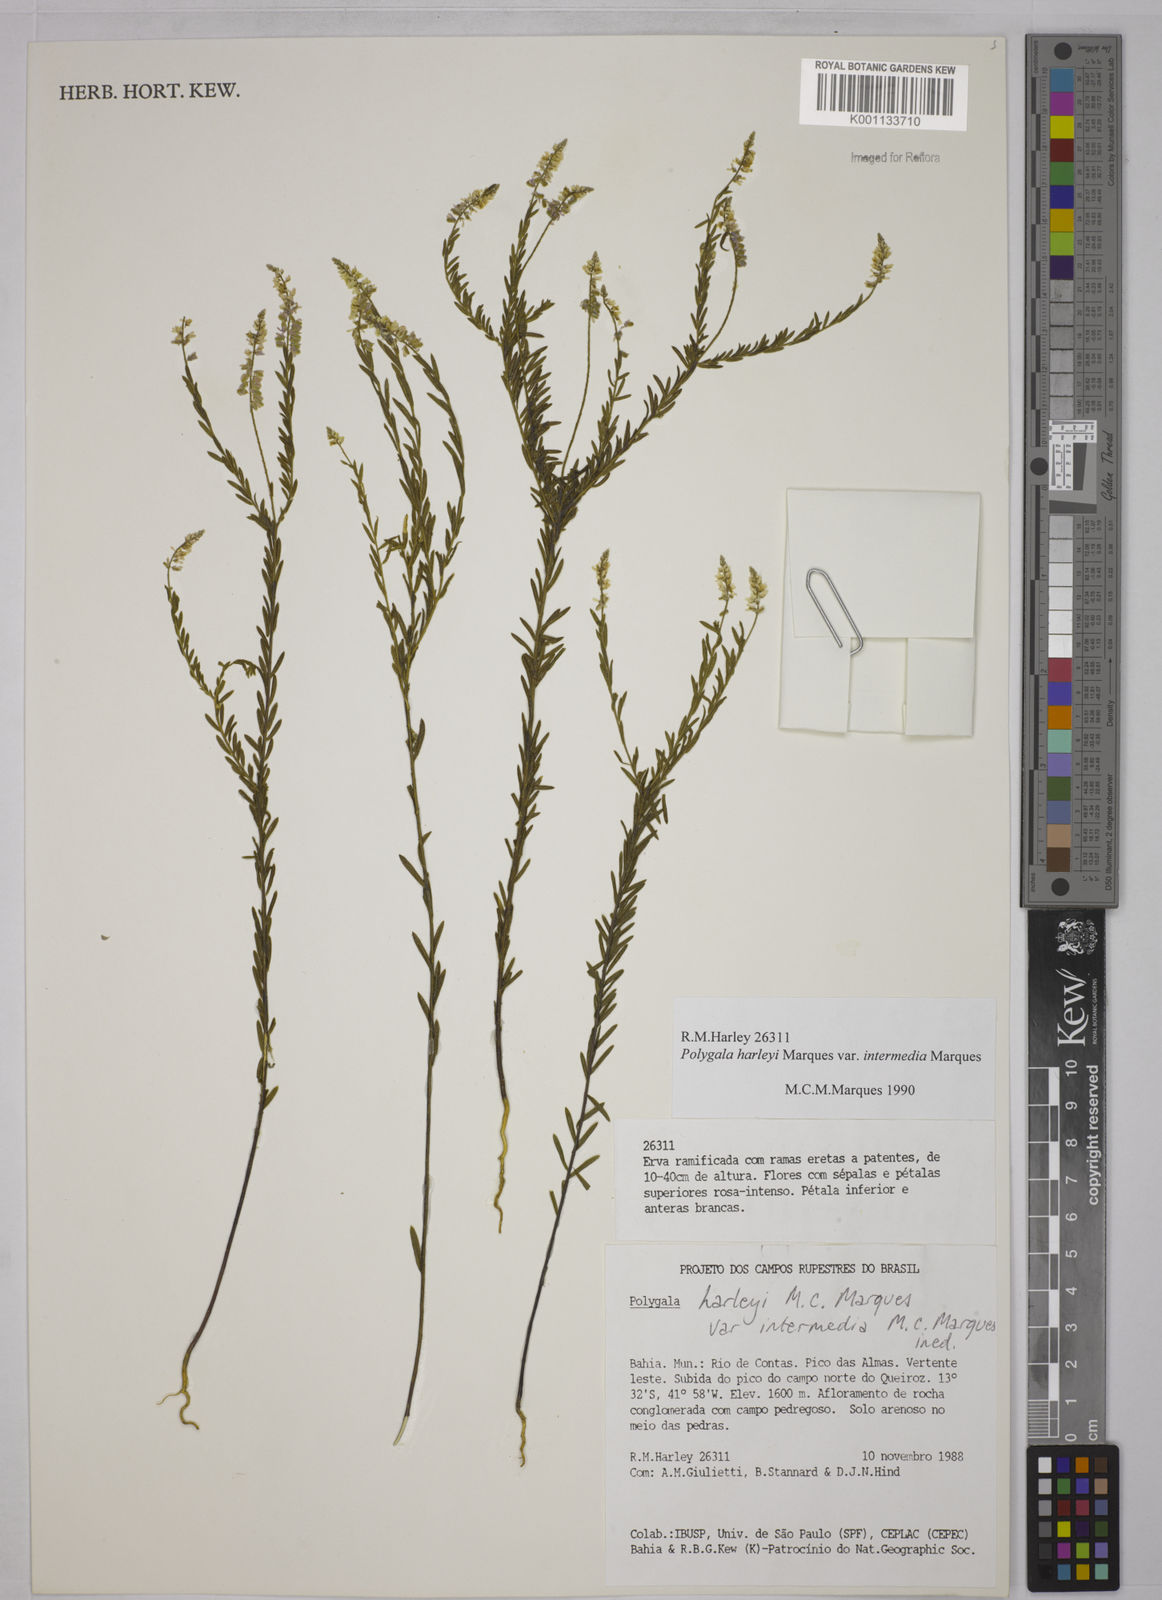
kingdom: Plantae
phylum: Tracheophyta
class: Magnoliopsida
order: Fabales
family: Polygalaceae
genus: Polygala
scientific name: Polygala
